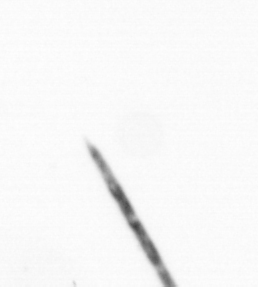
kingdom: Chromista
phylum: Ochrophyta
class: Bacillariophyceae
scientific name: Bacillariophyceae
